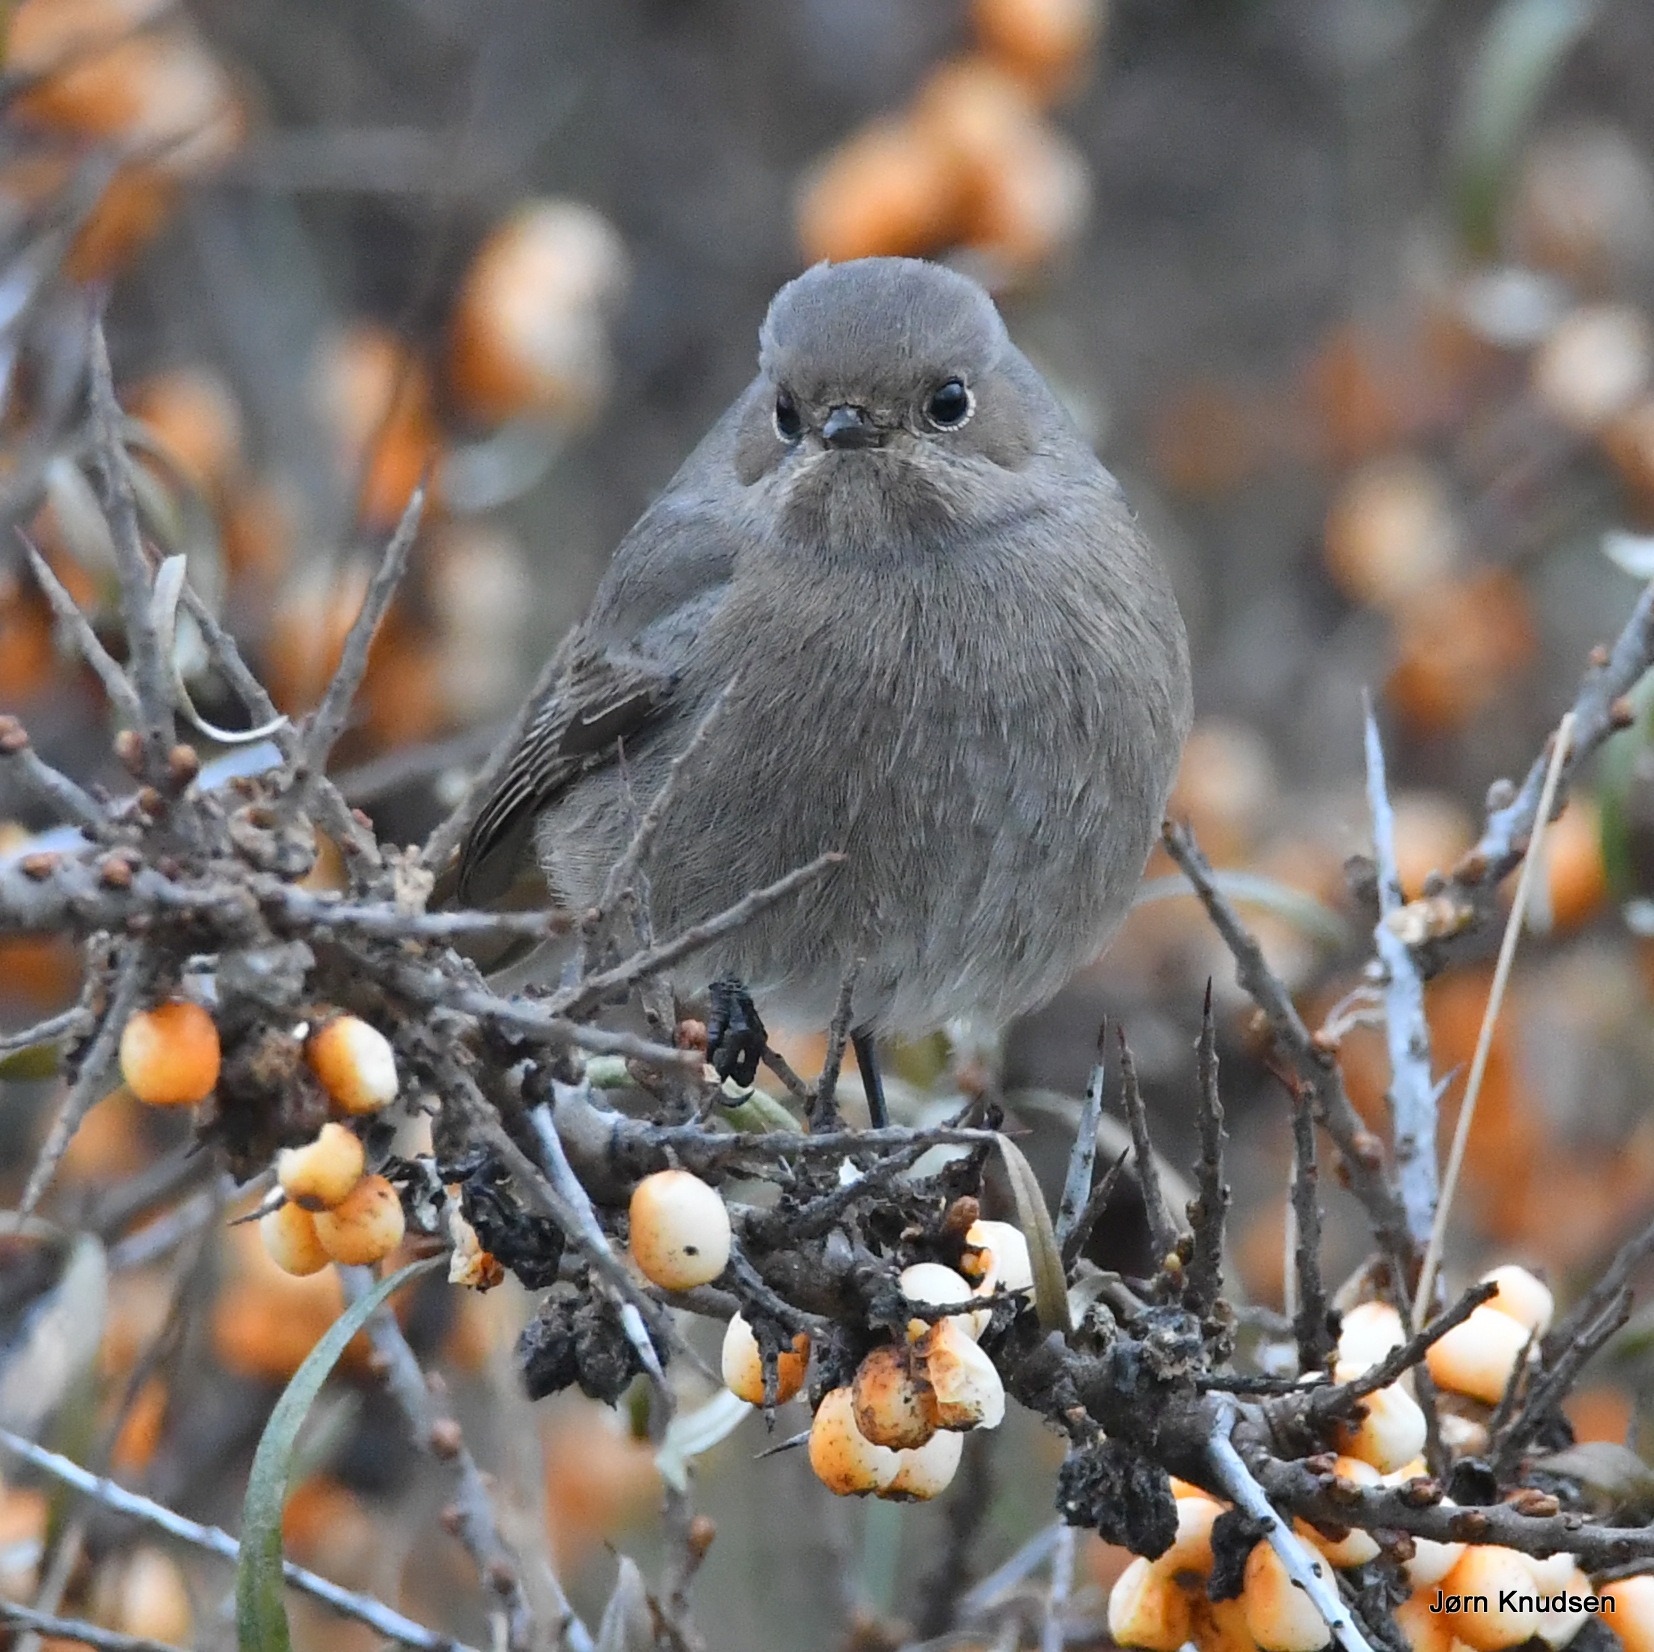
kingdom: Animalia
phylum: Chordata
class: Aves
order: Passeriformes
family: Muscicapidae
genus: Phoenicurus
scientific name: Phoenicurus ochruros
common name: Husrødstjert
